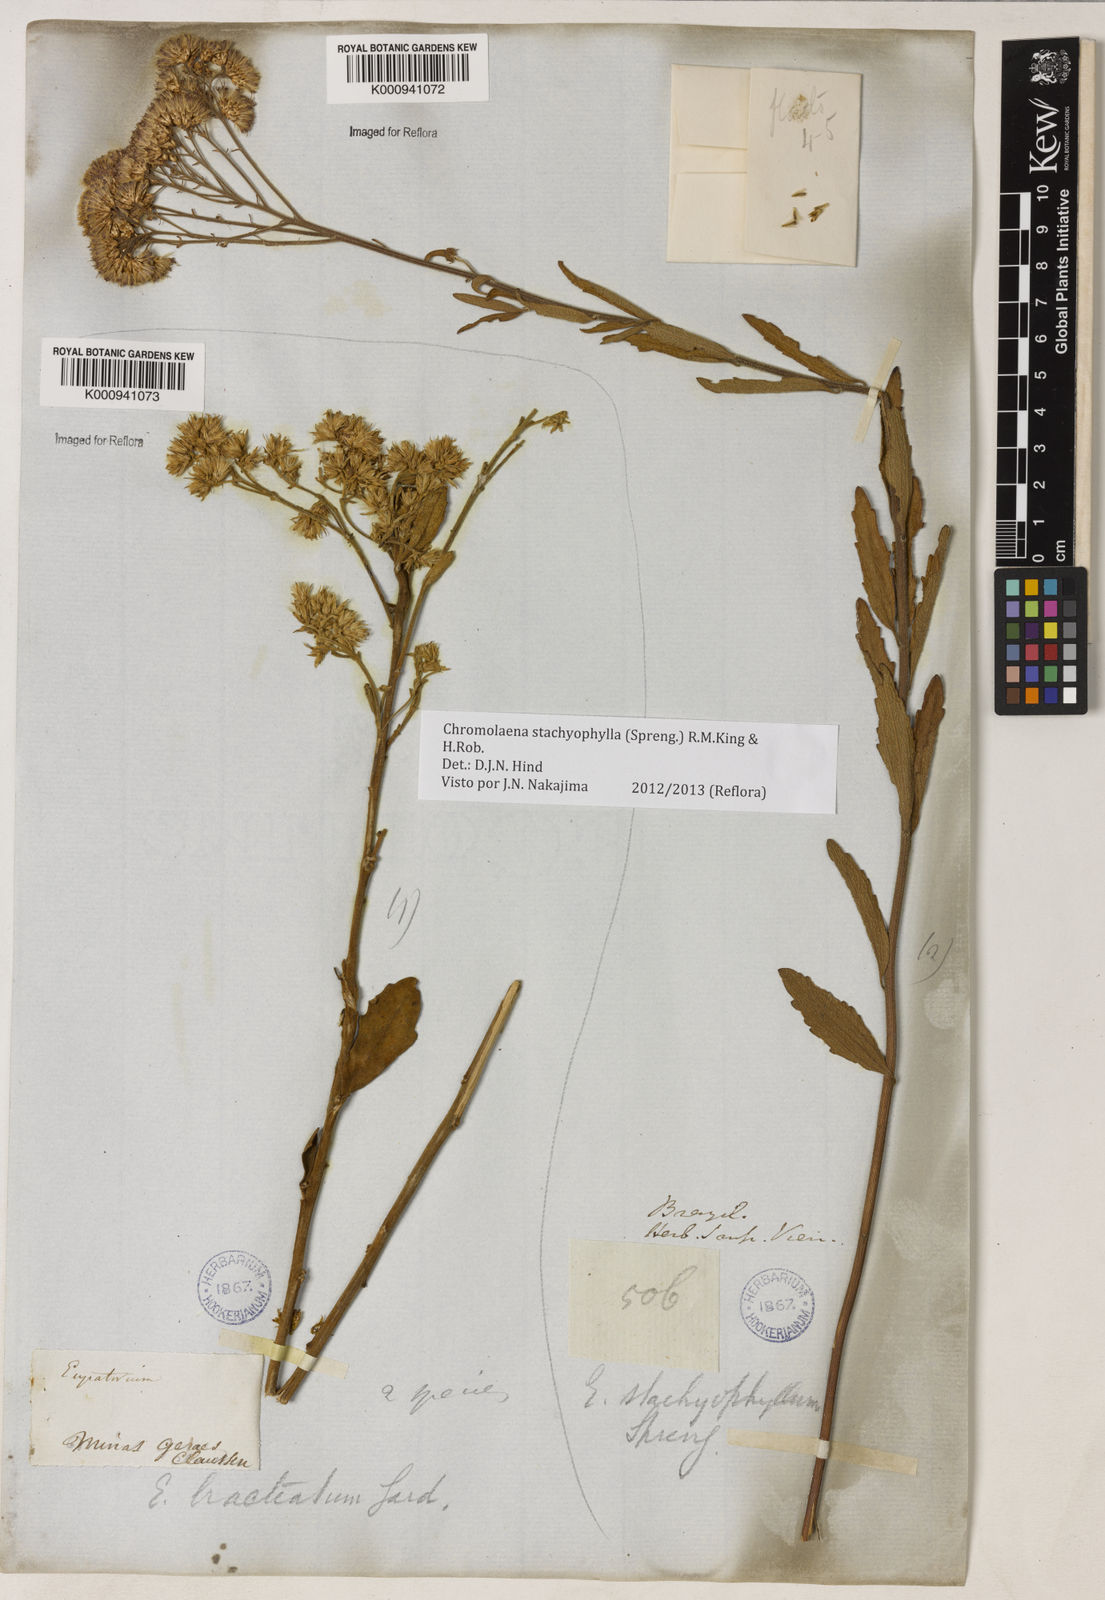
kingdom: Plantae
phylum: Tracheophyta
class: Magnoliopsida
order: Asterales
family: Asteraceae
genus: Chromolaena
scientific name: Chromolaena stachyophylla
